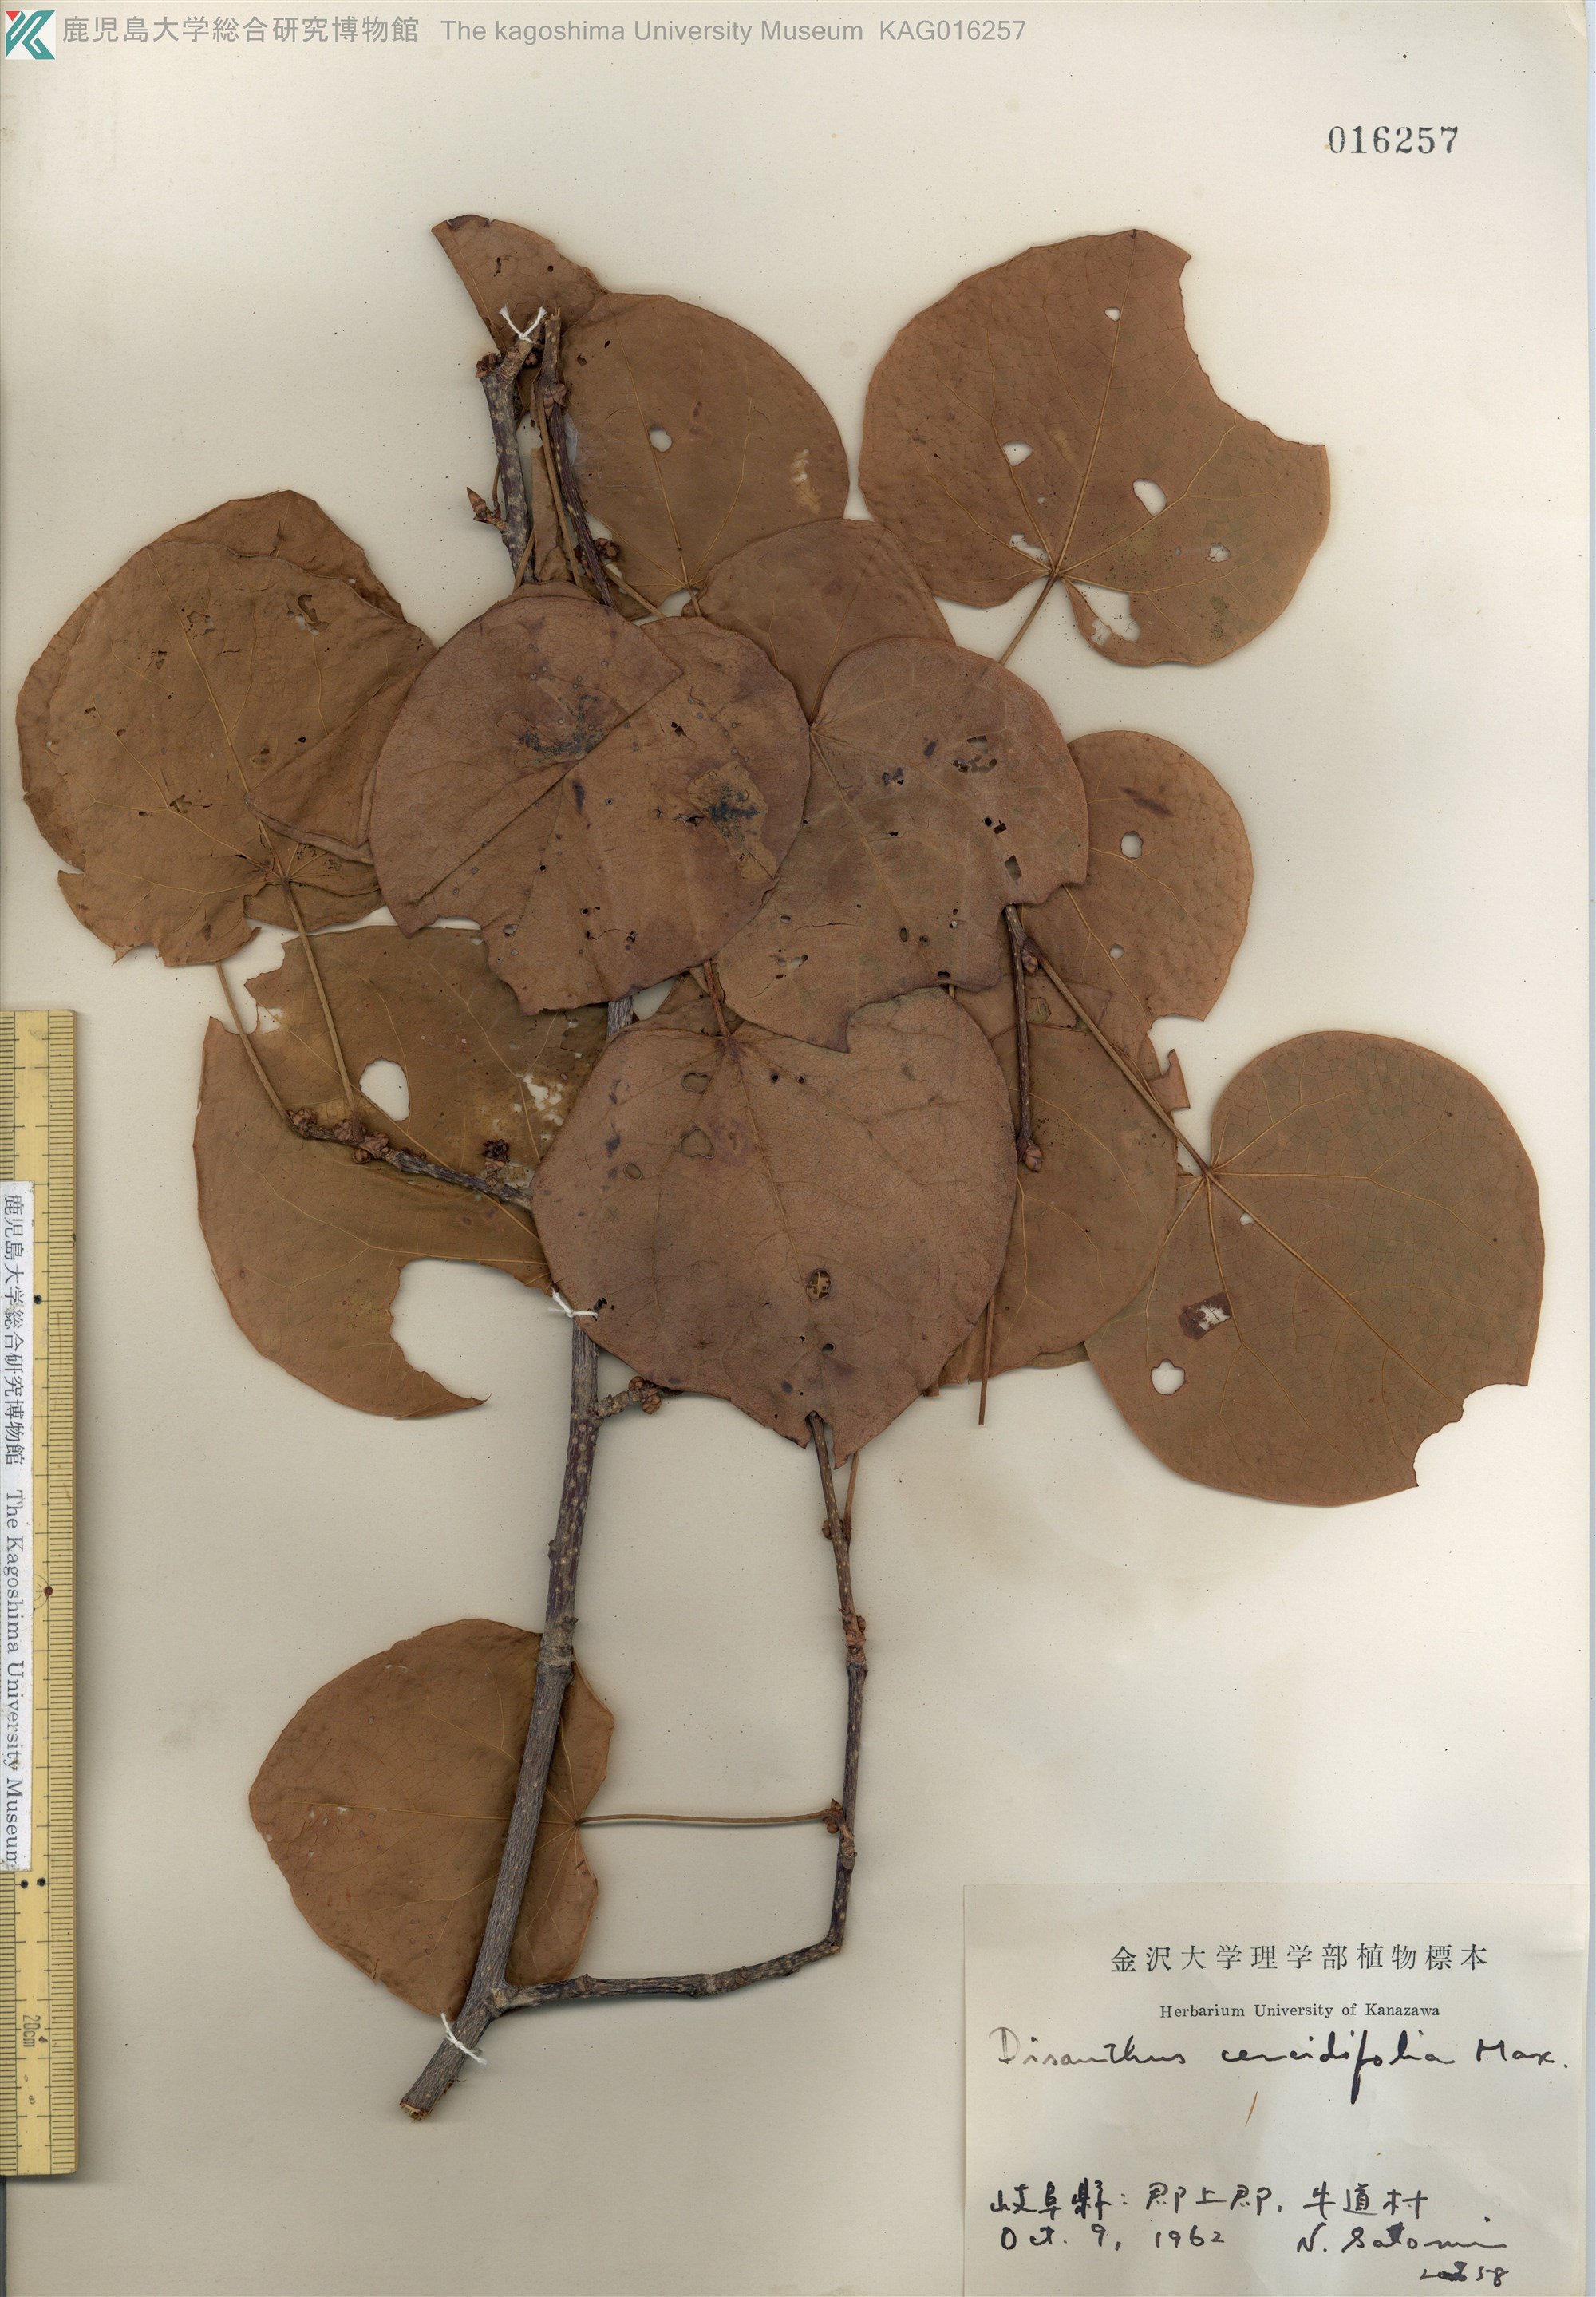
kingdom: Plantae
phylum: Tracheophyta
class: Magnoliopsida
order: Saxifragales
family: Hamamelidaceae
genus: Disanthus
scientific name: Disanthus cercidifolius
